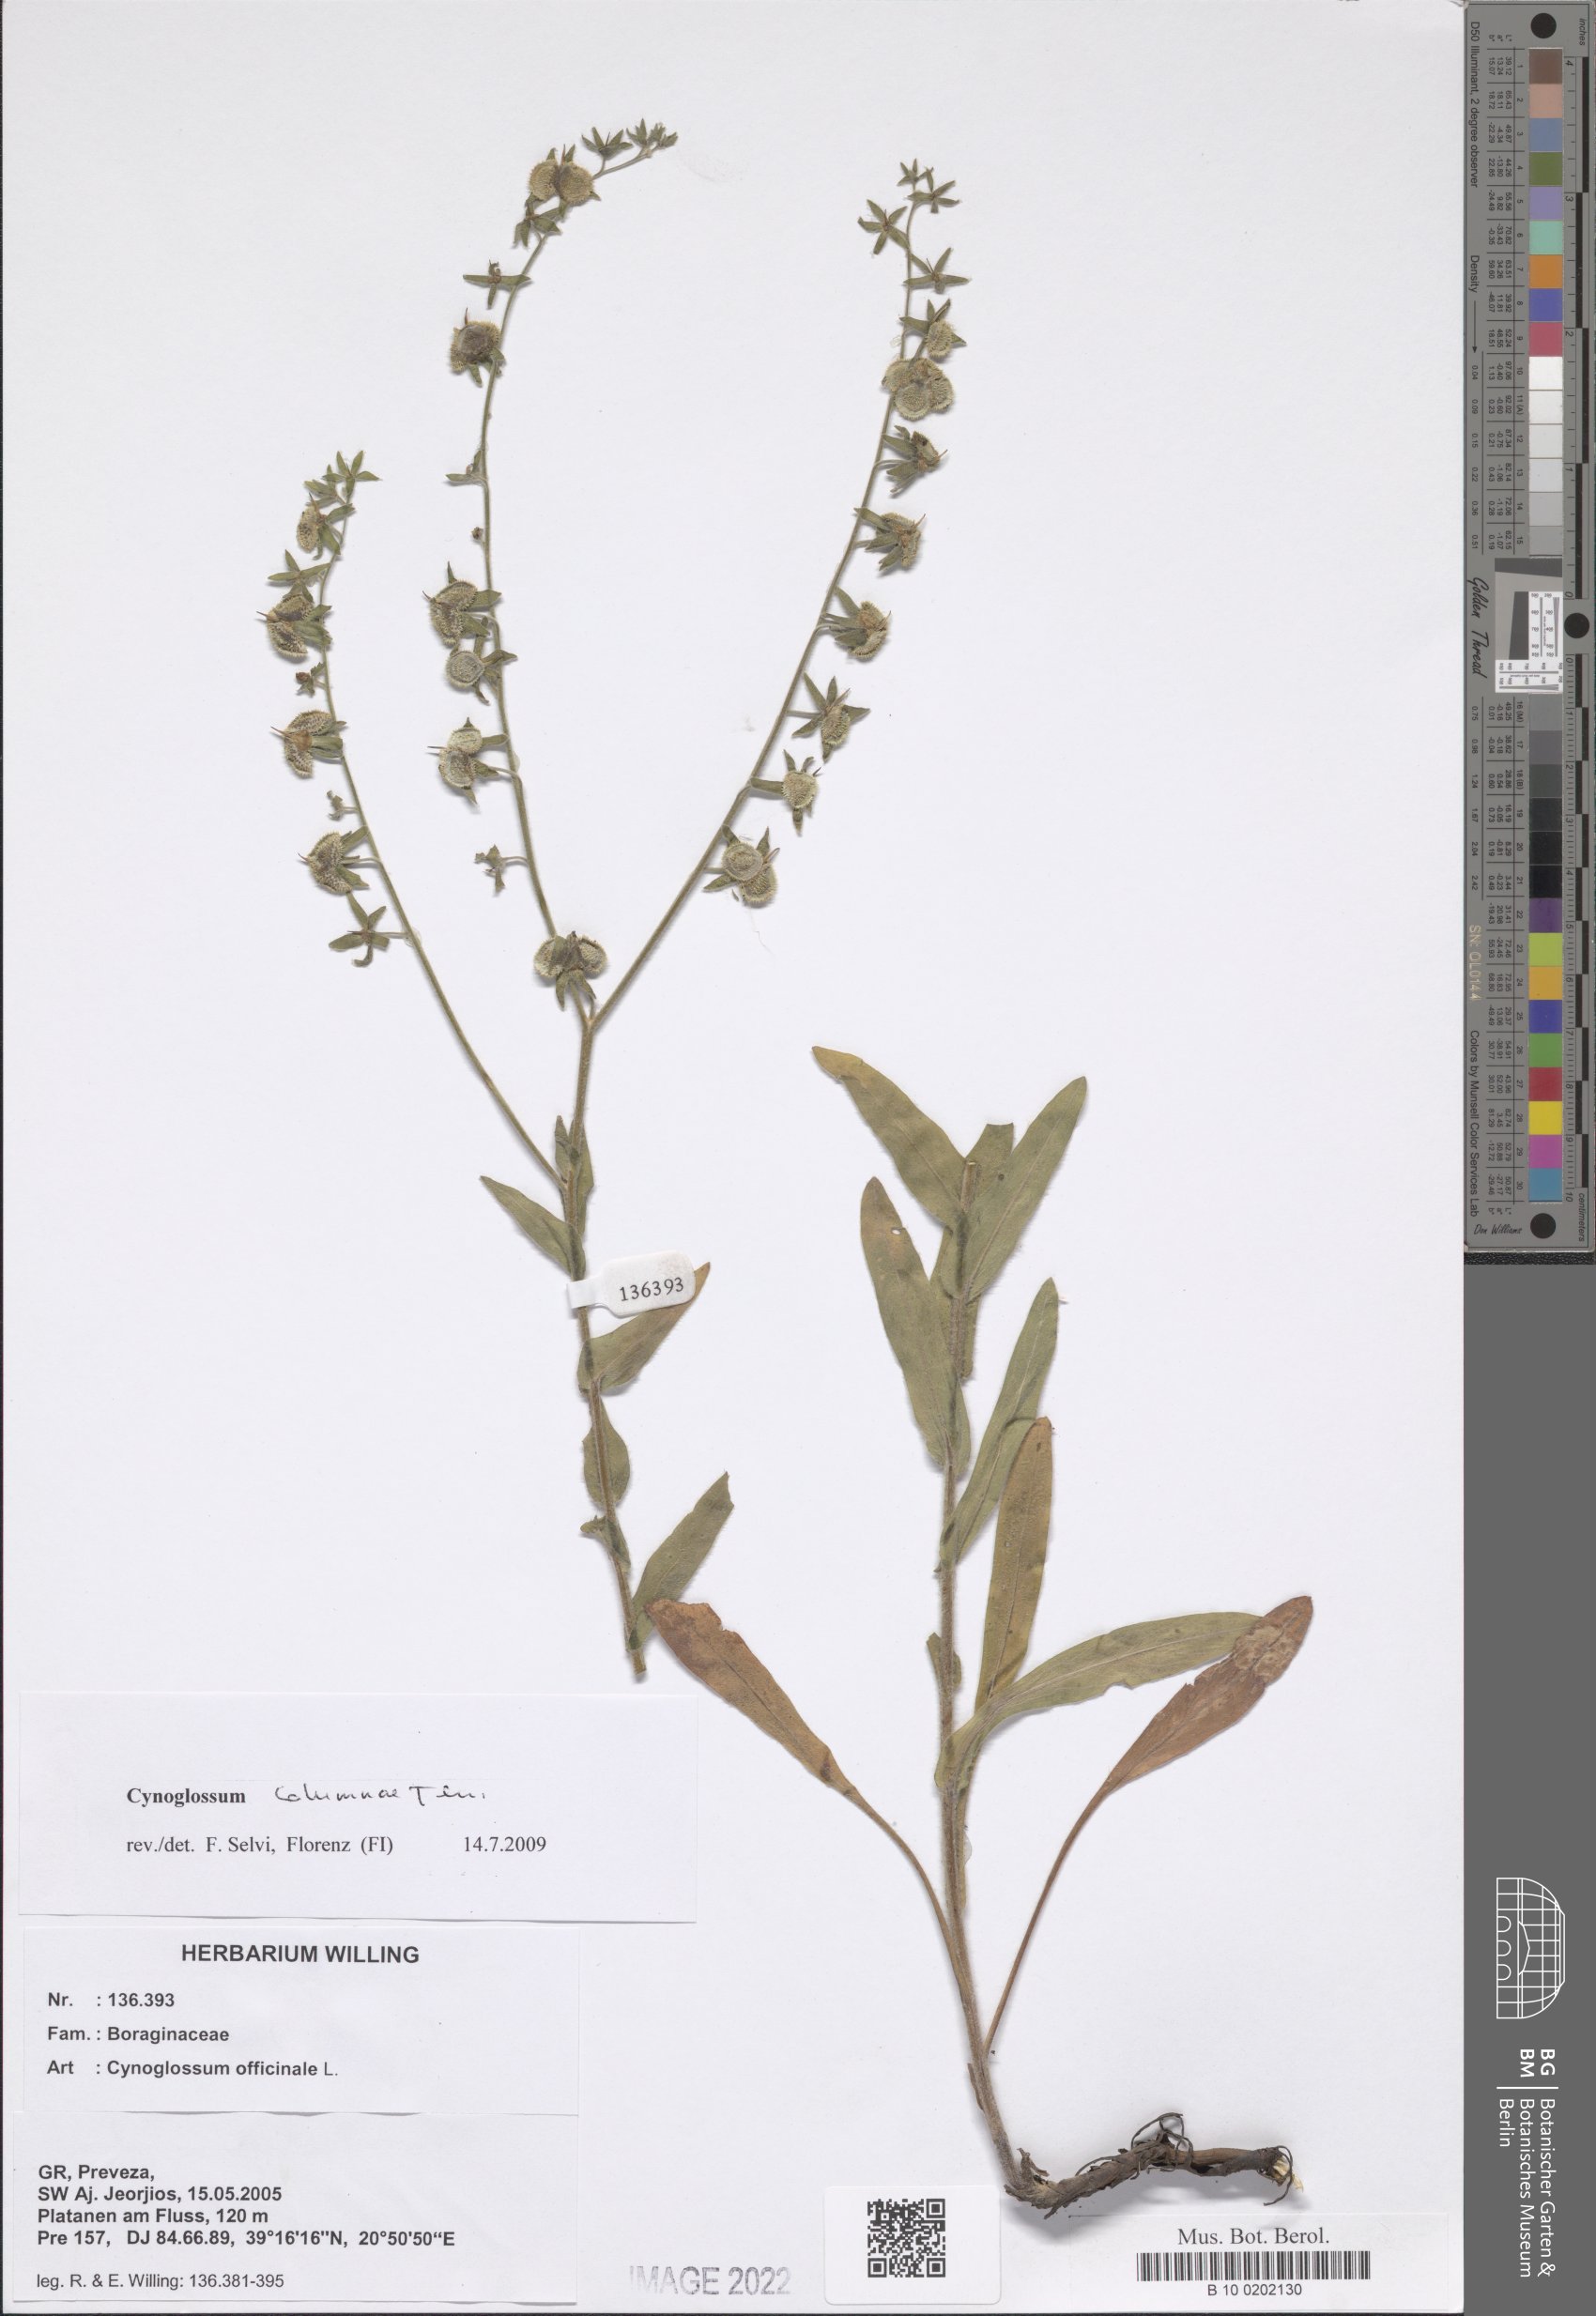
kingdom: Plantae
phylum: Tracheophyta
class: Magnoliopsida
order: Boraginales
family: Boraginaceae
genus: Rindera
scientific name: Rindera columnae
